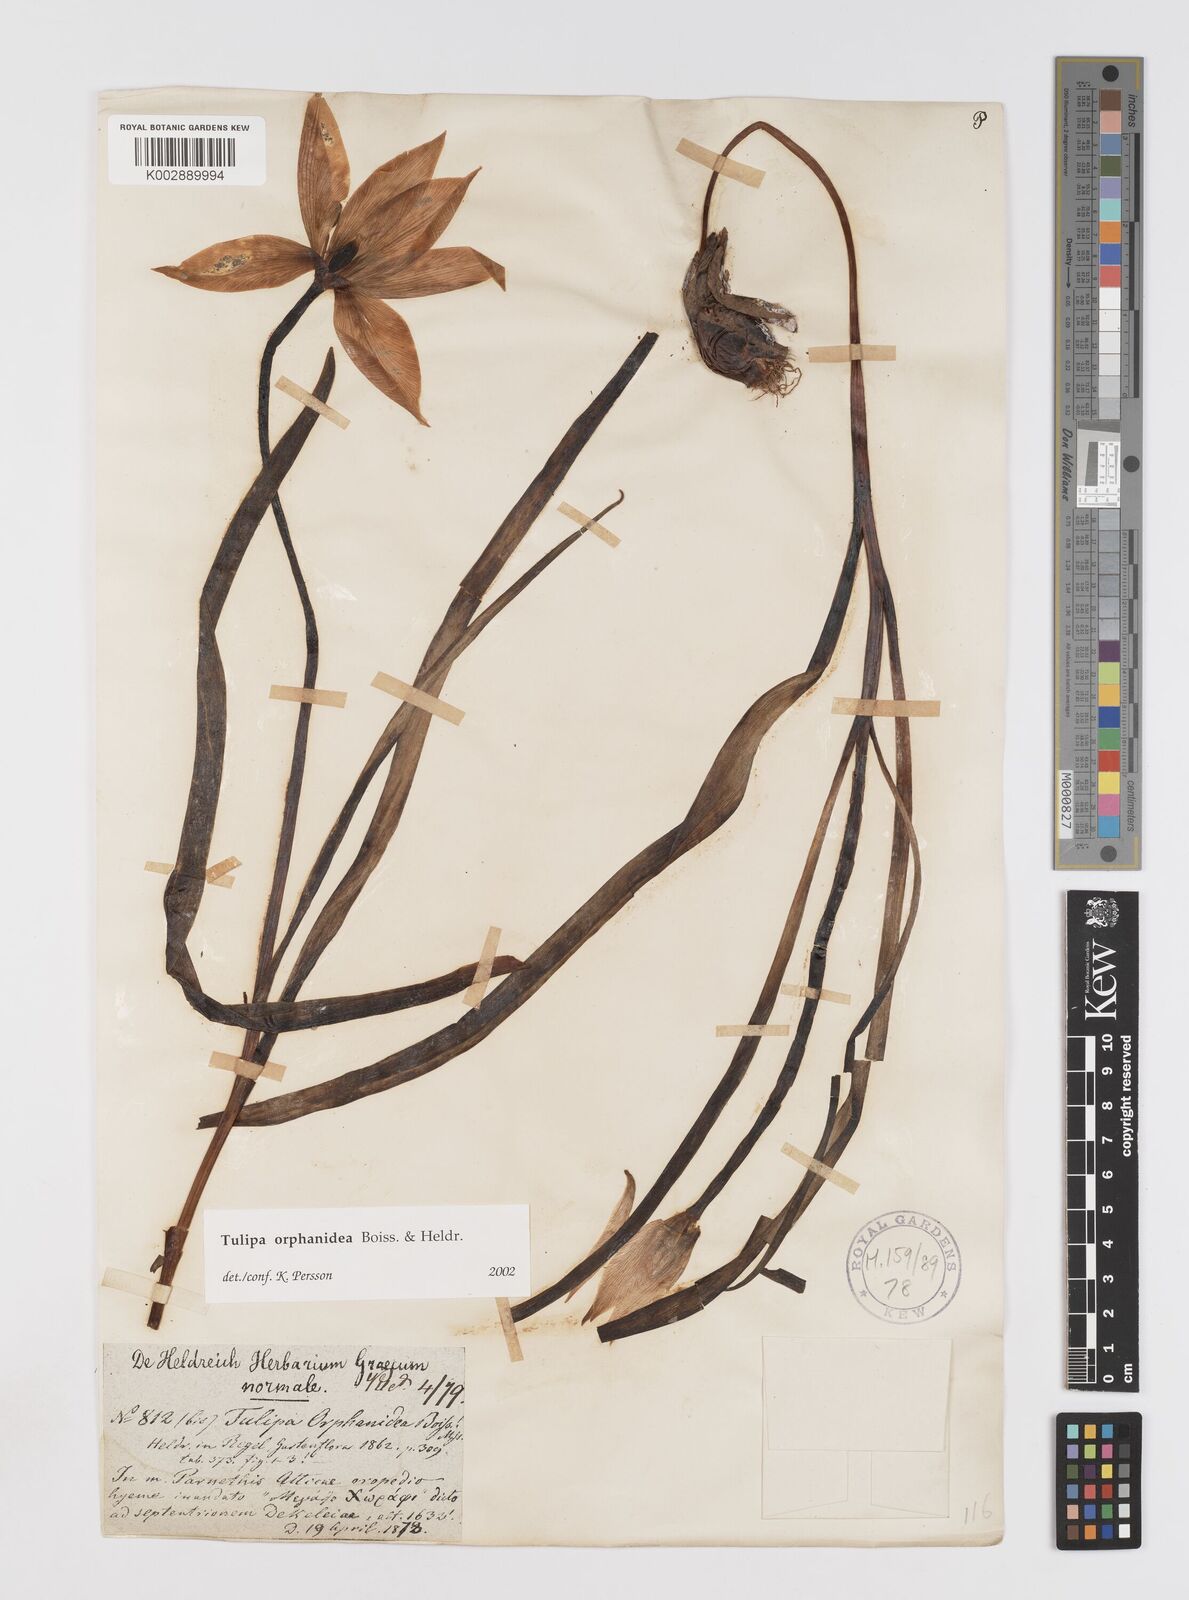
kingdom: Plantae
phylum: Tracheophyta
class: Liliopsida
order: Liliales
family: Liliaceae
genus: Tulipa
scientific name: Tulipa orphanidea
